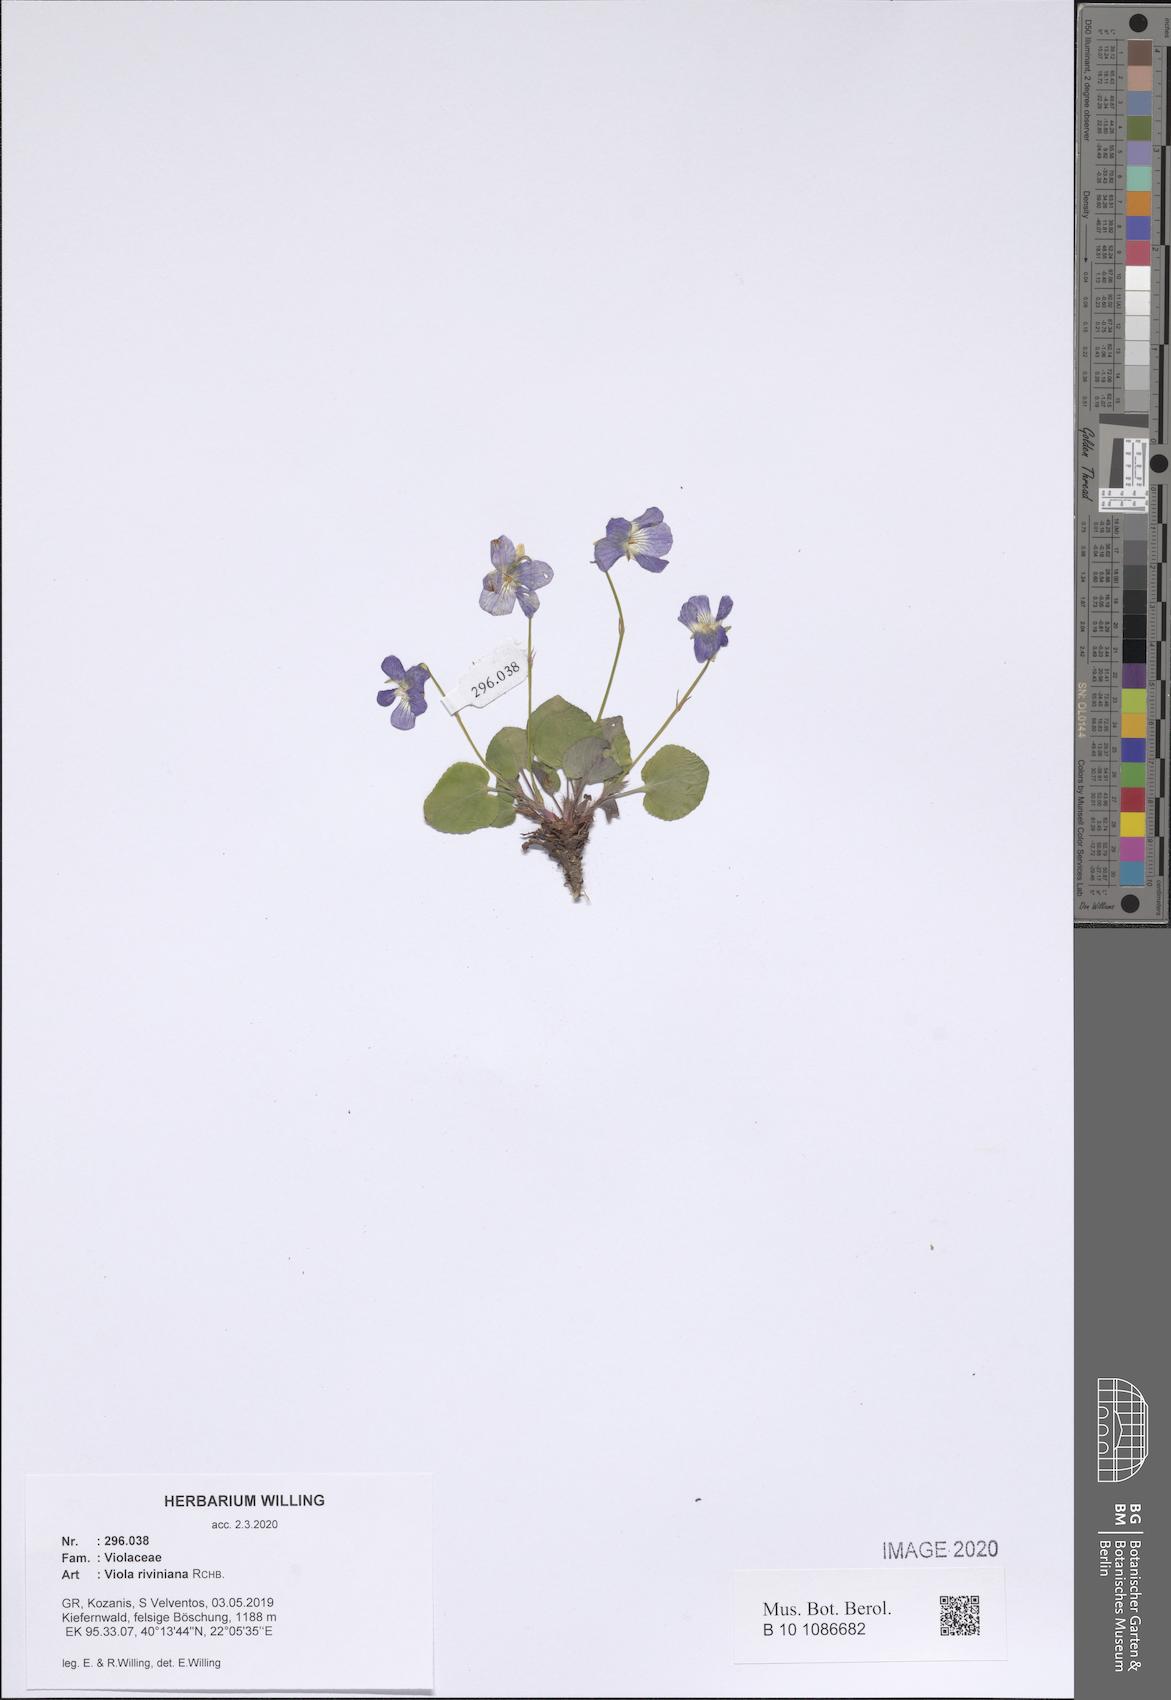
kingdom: Plantae
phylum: Tracheophyta
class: Magnoliopsida
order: Malpighiales
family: Violaceae
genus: Viola
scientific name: Viola riviniana
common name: Common dog-violet
